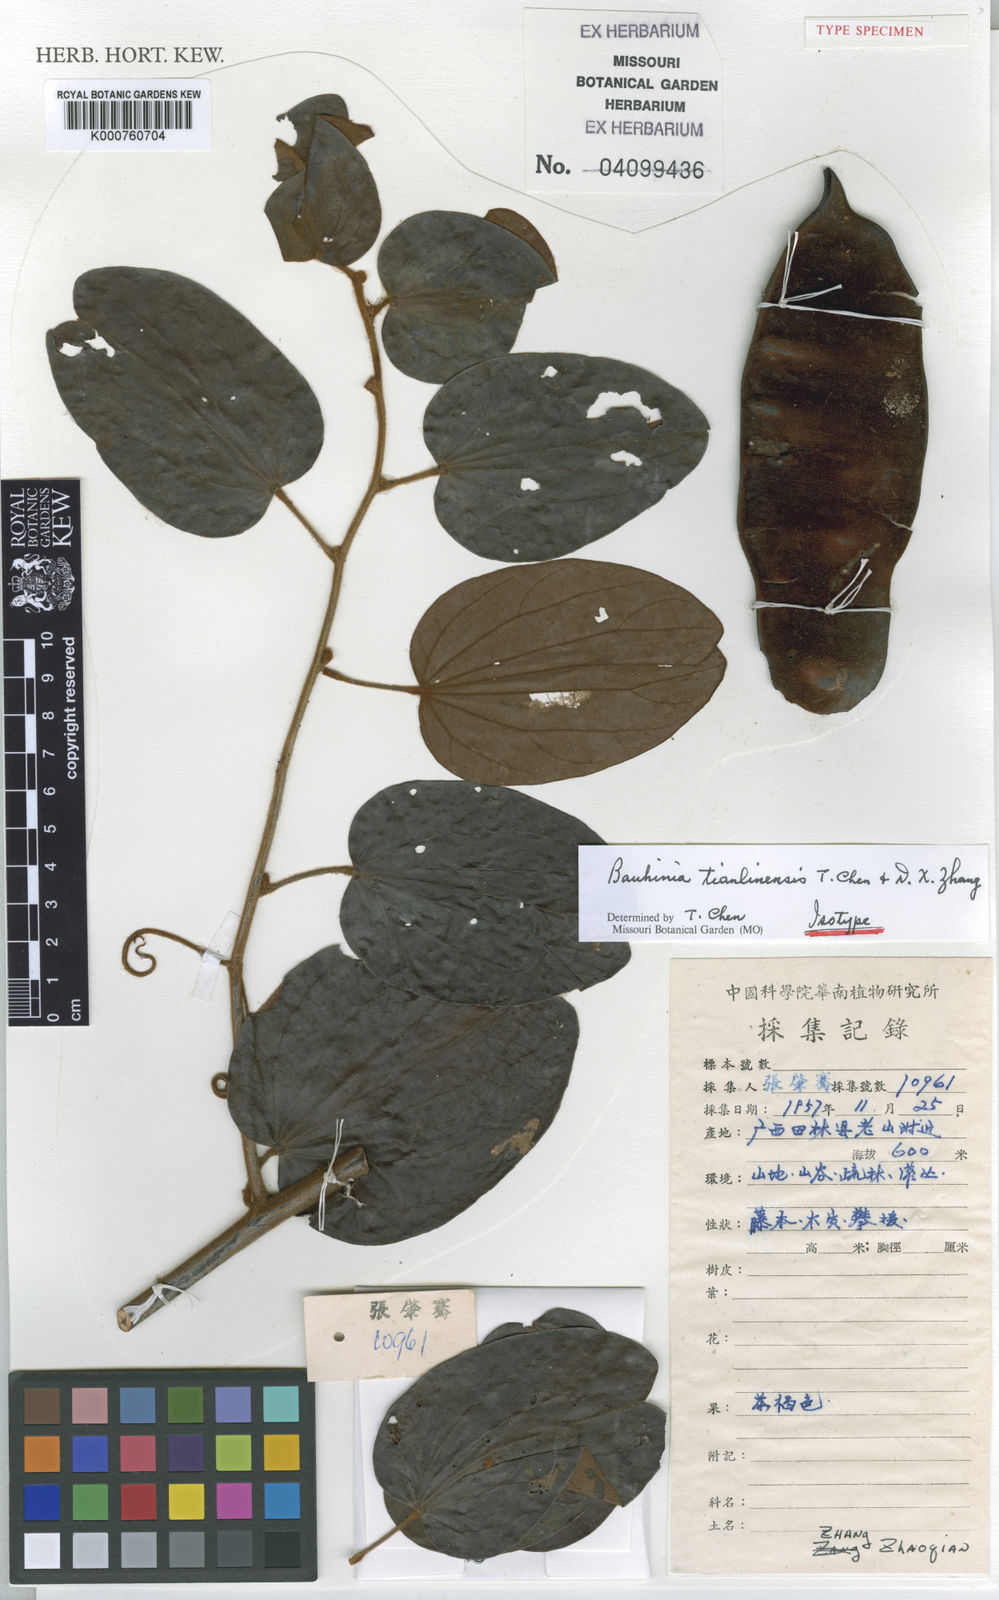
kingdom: Plantae
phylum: Tracheophyta
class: Magnoliopsida
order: Fabales
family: Fabaceae
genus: Phanera
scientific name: Phanera tianlinensis
